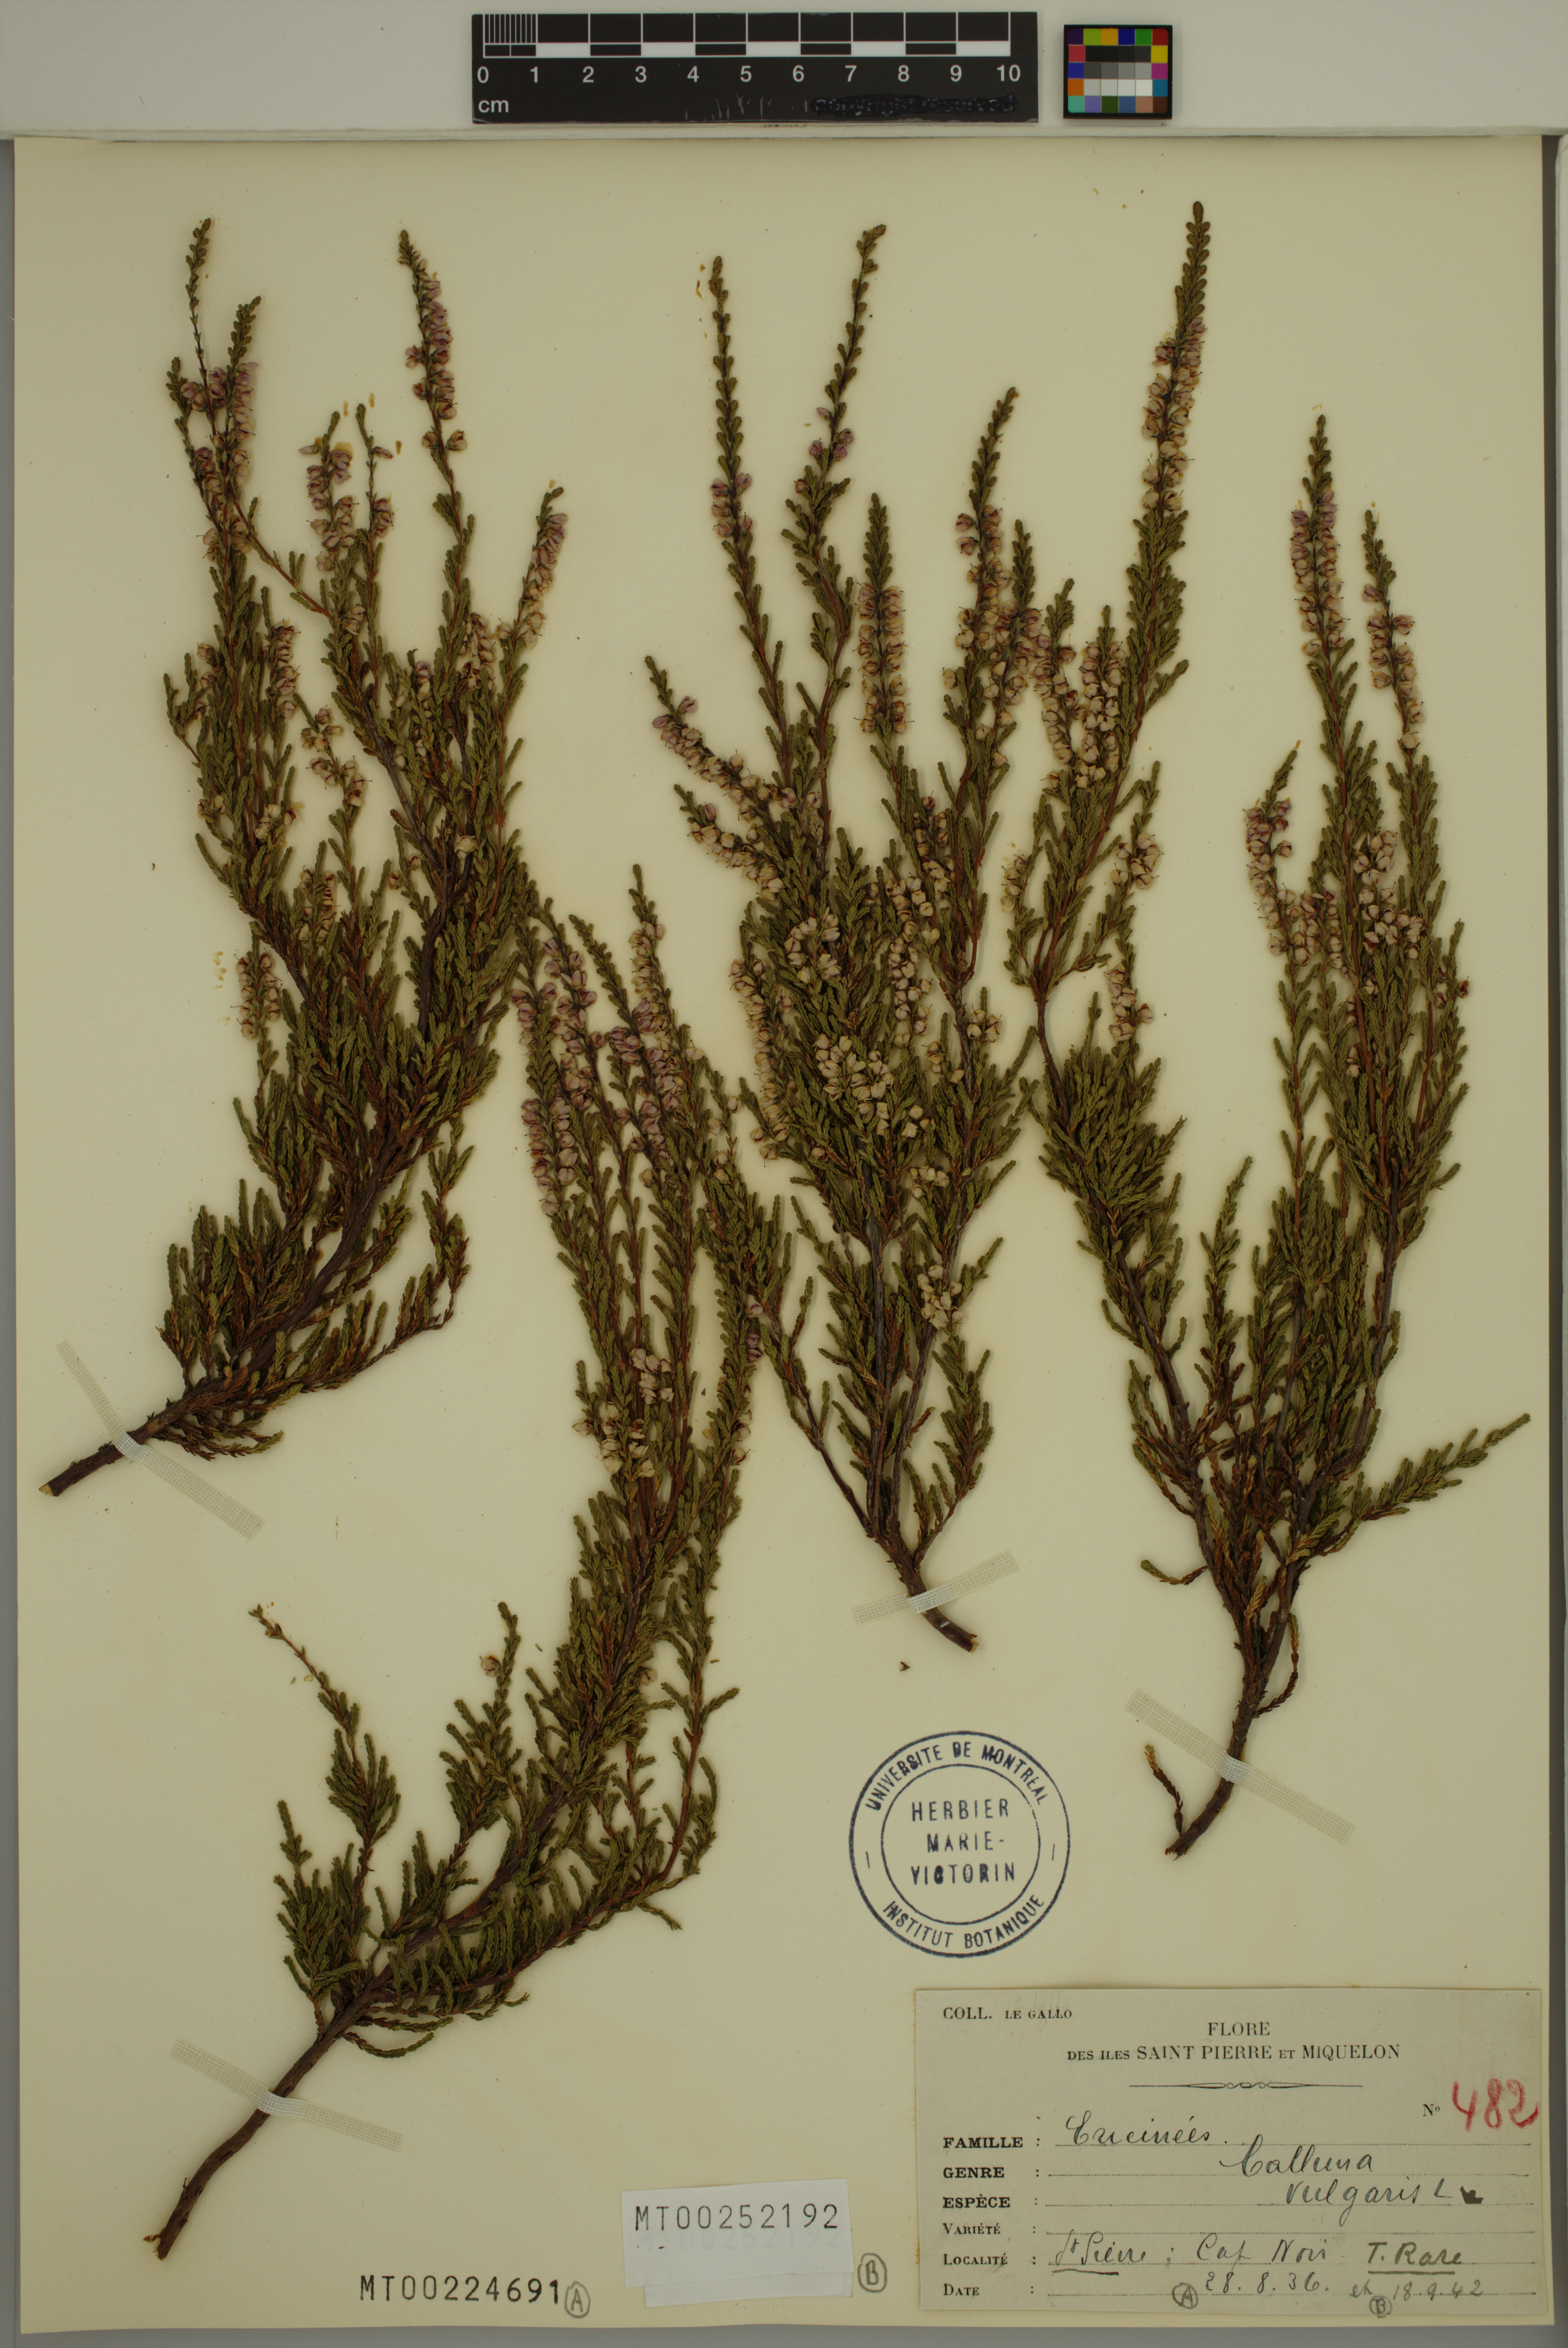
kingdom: Plantae
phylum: Tracheophyta
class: Magnoliopsida
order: Ericales
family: Ericaceae
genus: Calluna
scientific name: Calluna vulgaris
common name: Heather
